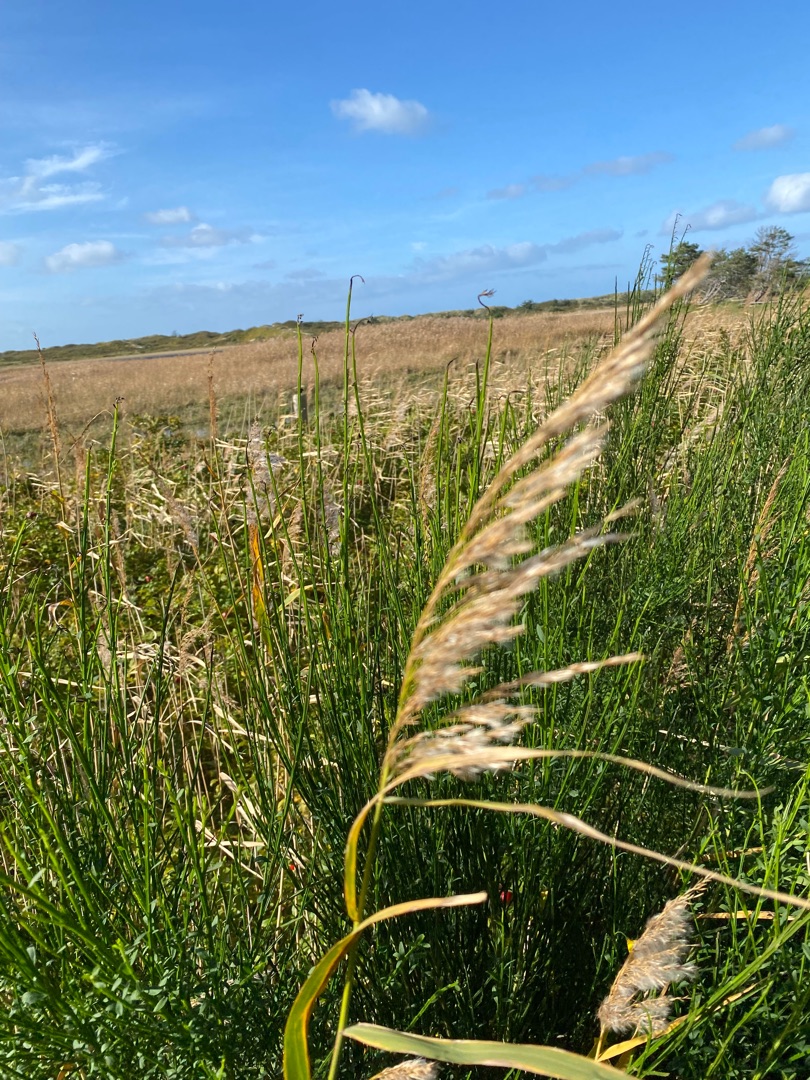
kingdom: Plantae
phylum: Tracheophyta
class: Liliopsida
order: Poales
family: Poaceae
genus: Phragmites
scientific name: Phragmites australis
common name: Tagrør
